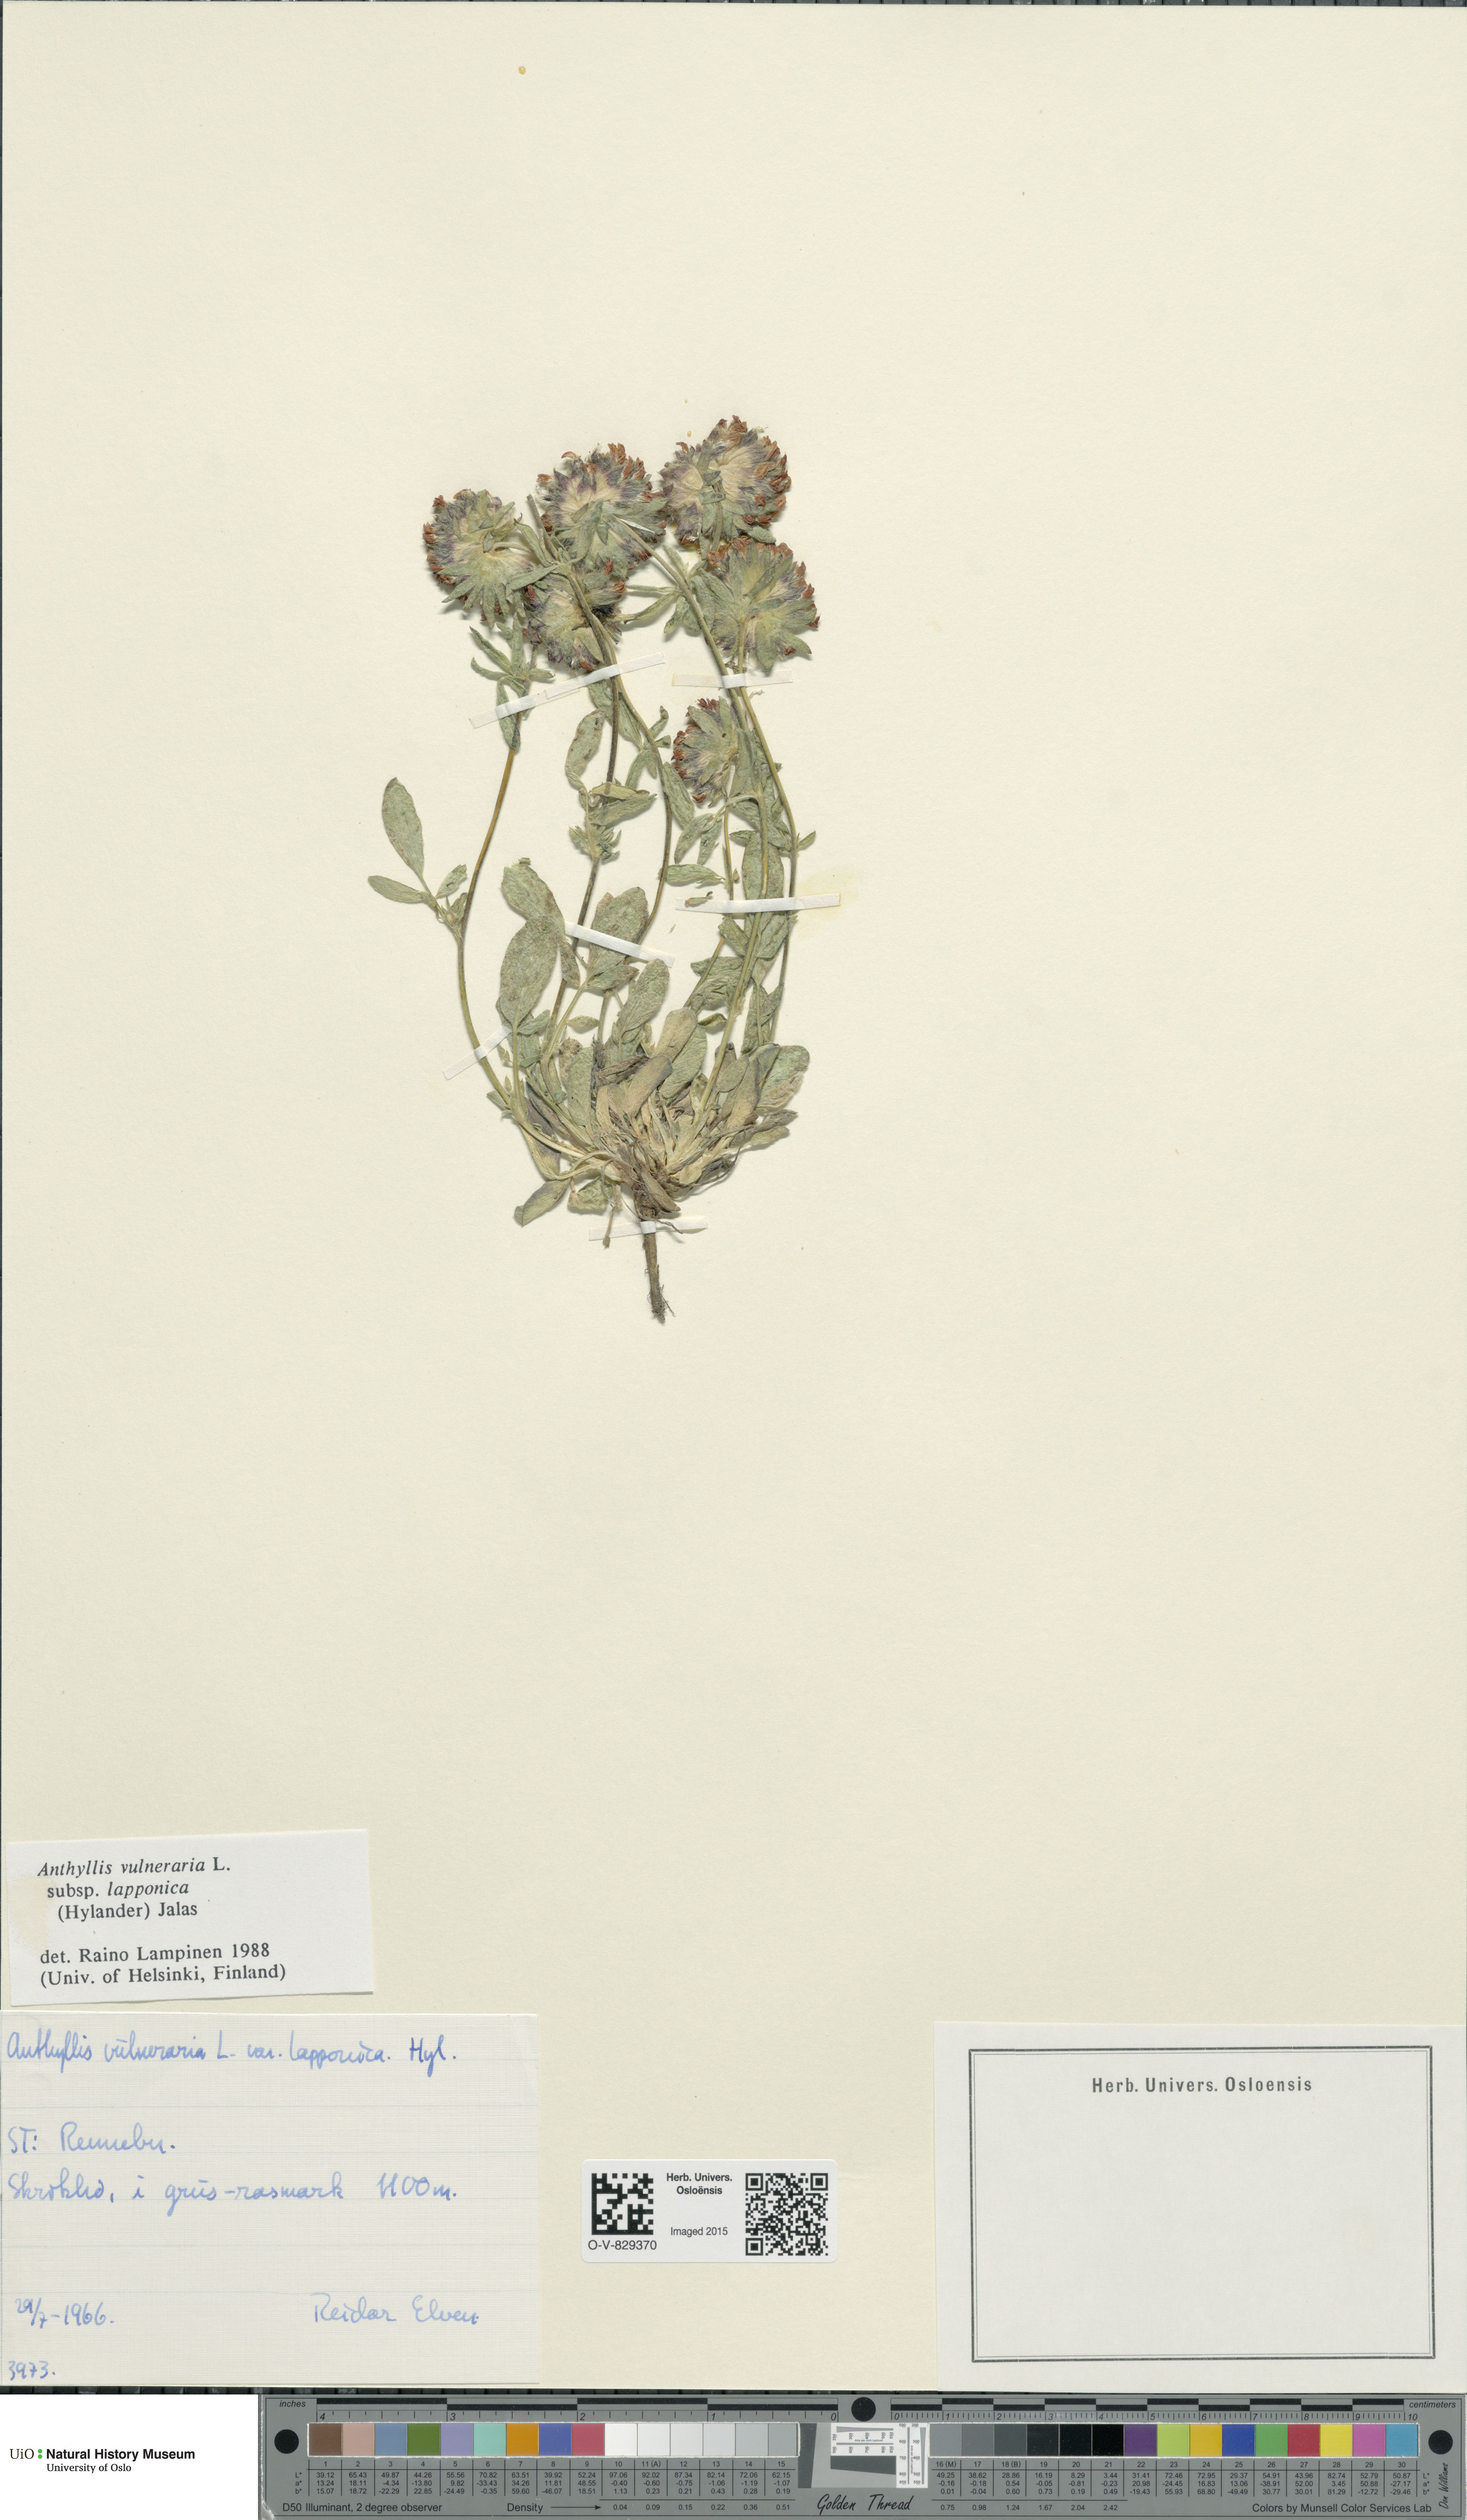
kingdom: Plantae
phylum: Tracheophyta
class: Magnoliopsida
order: Fabales
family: Fabaceae
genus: Anthyllis
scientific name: Anthyllis vulneraria
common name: Kidney vetch
